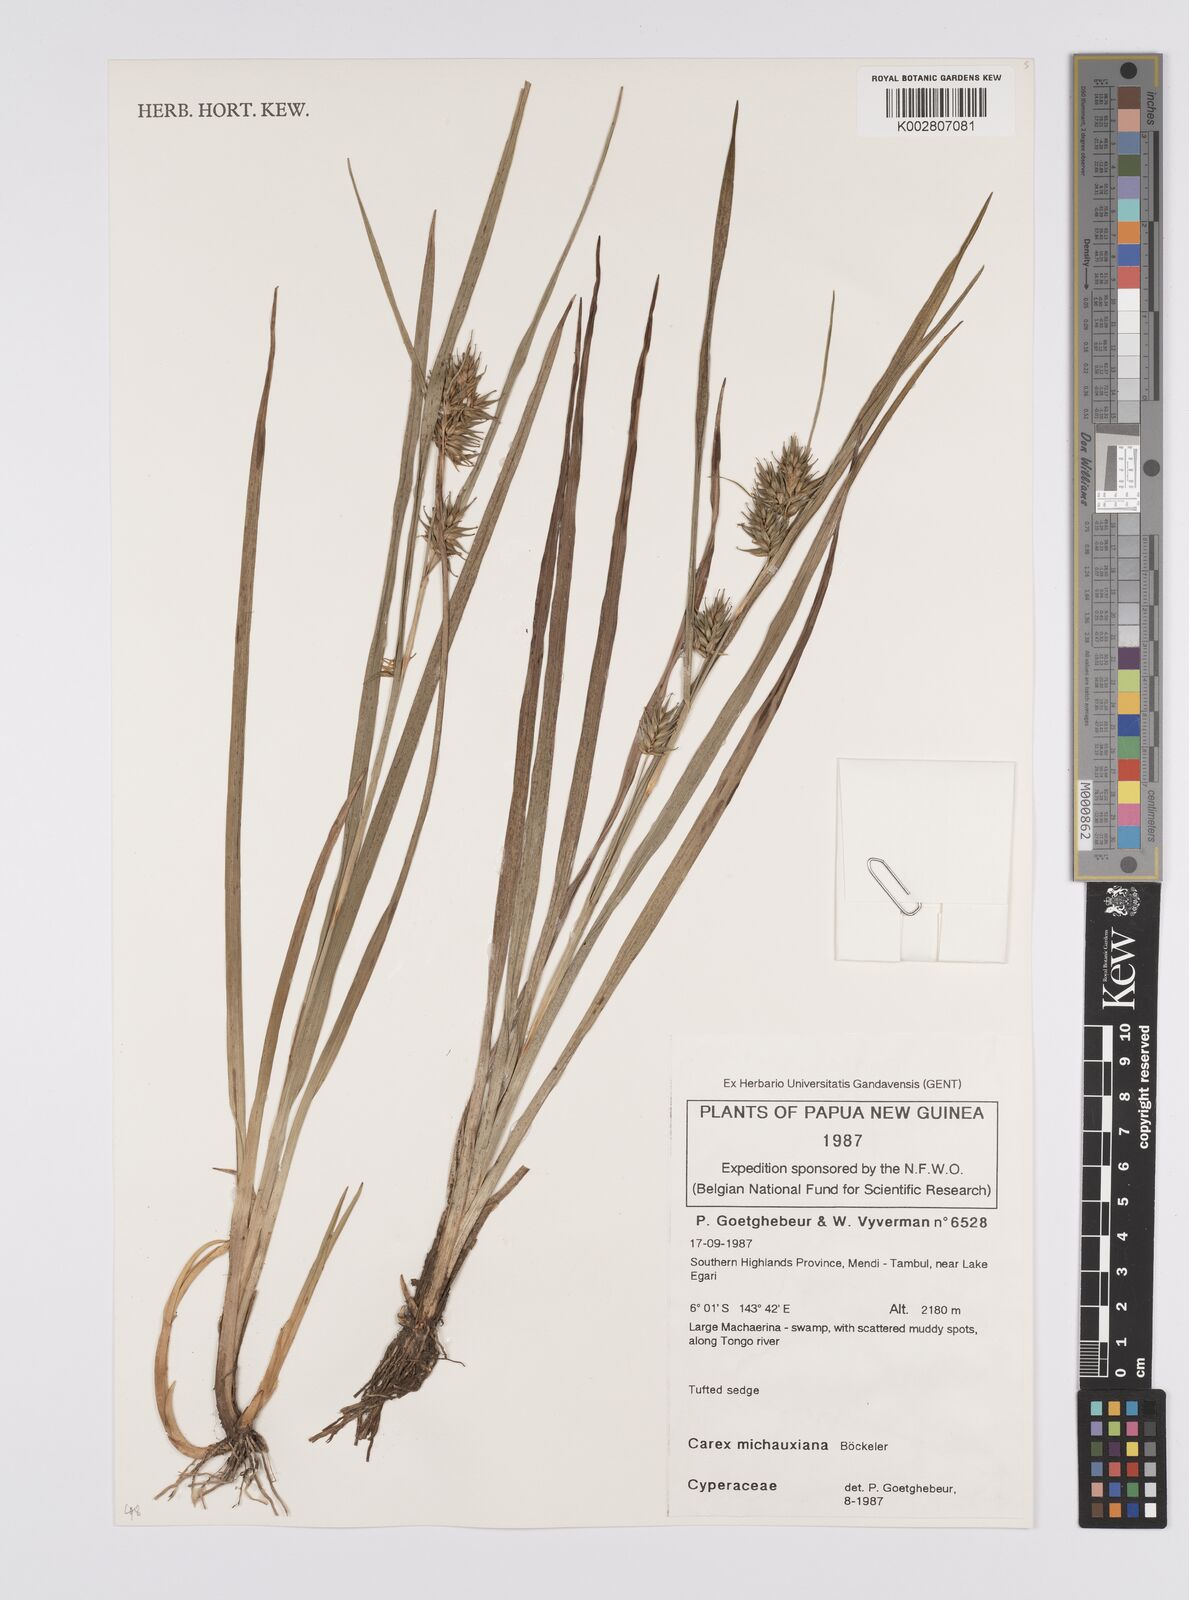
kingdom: Plantae
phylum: Tracheophyta
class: Liliopsida
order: Poales
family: Cyperaceae
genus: Carex
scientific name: Carex michauxiana
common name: Michaux's sedge
